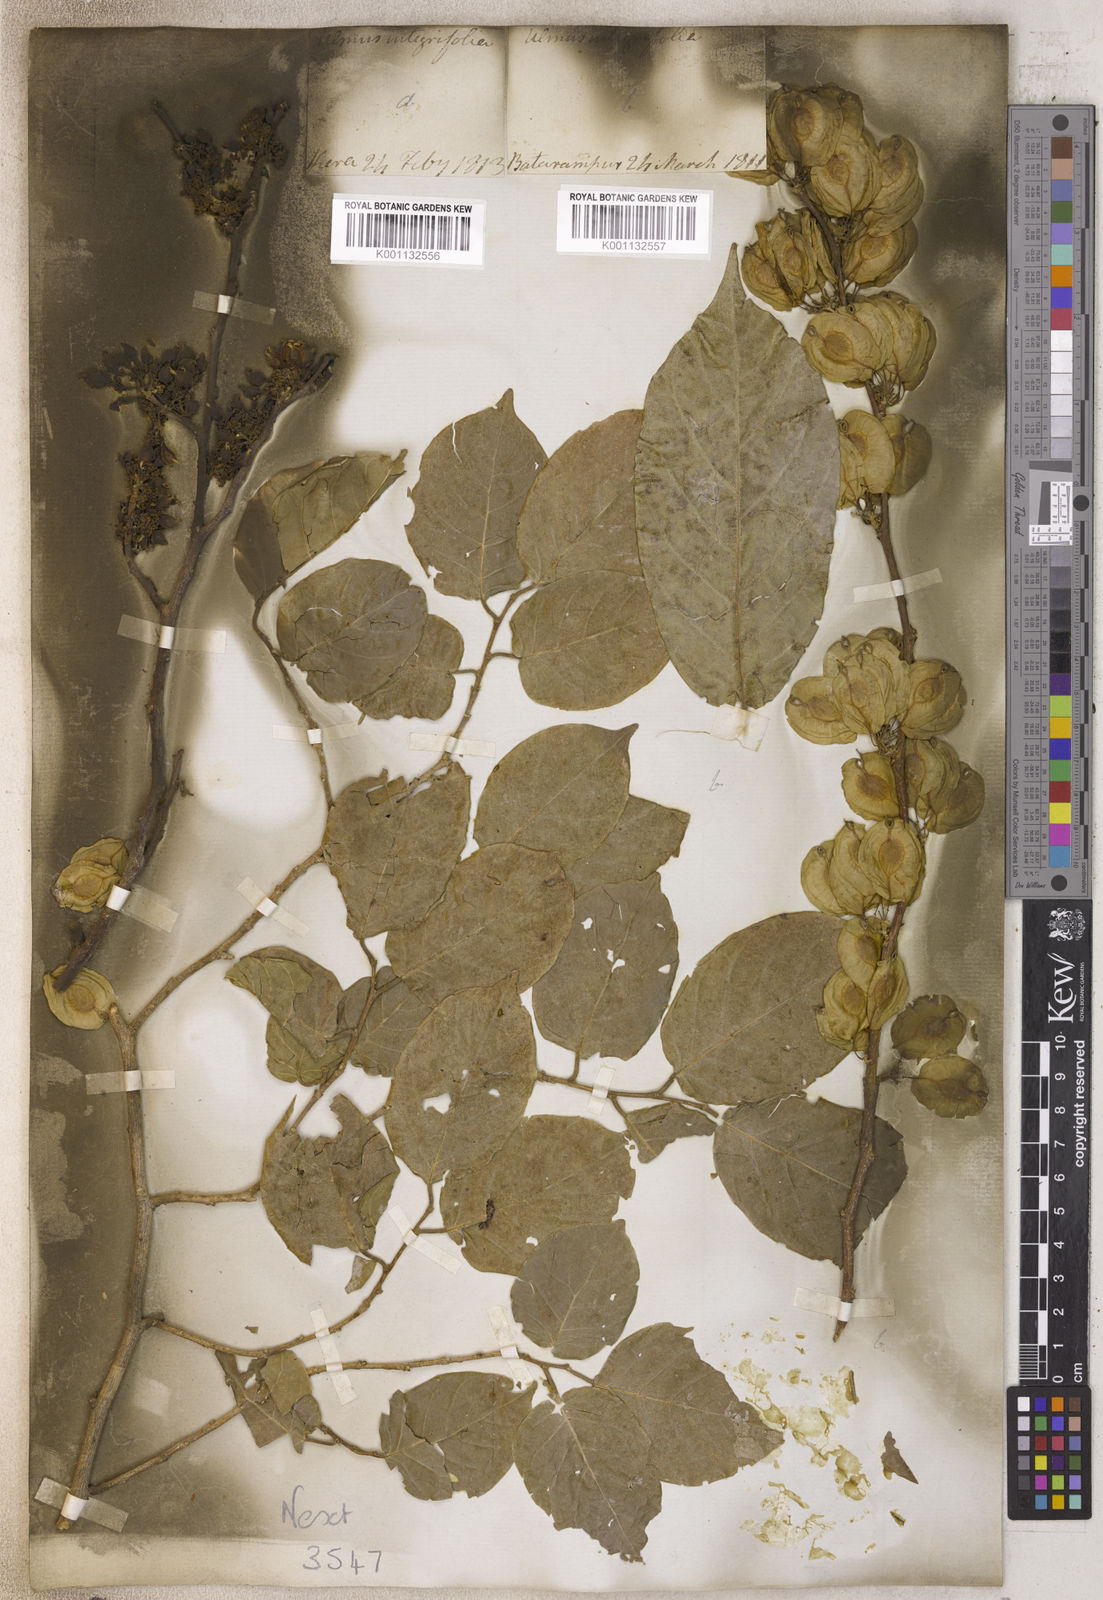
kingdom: Plantae
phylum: Tracheophyta
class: Magnoliopsida
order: Rosales
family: Ulmaceae
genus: Holoptelea
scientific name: Holoptelea
